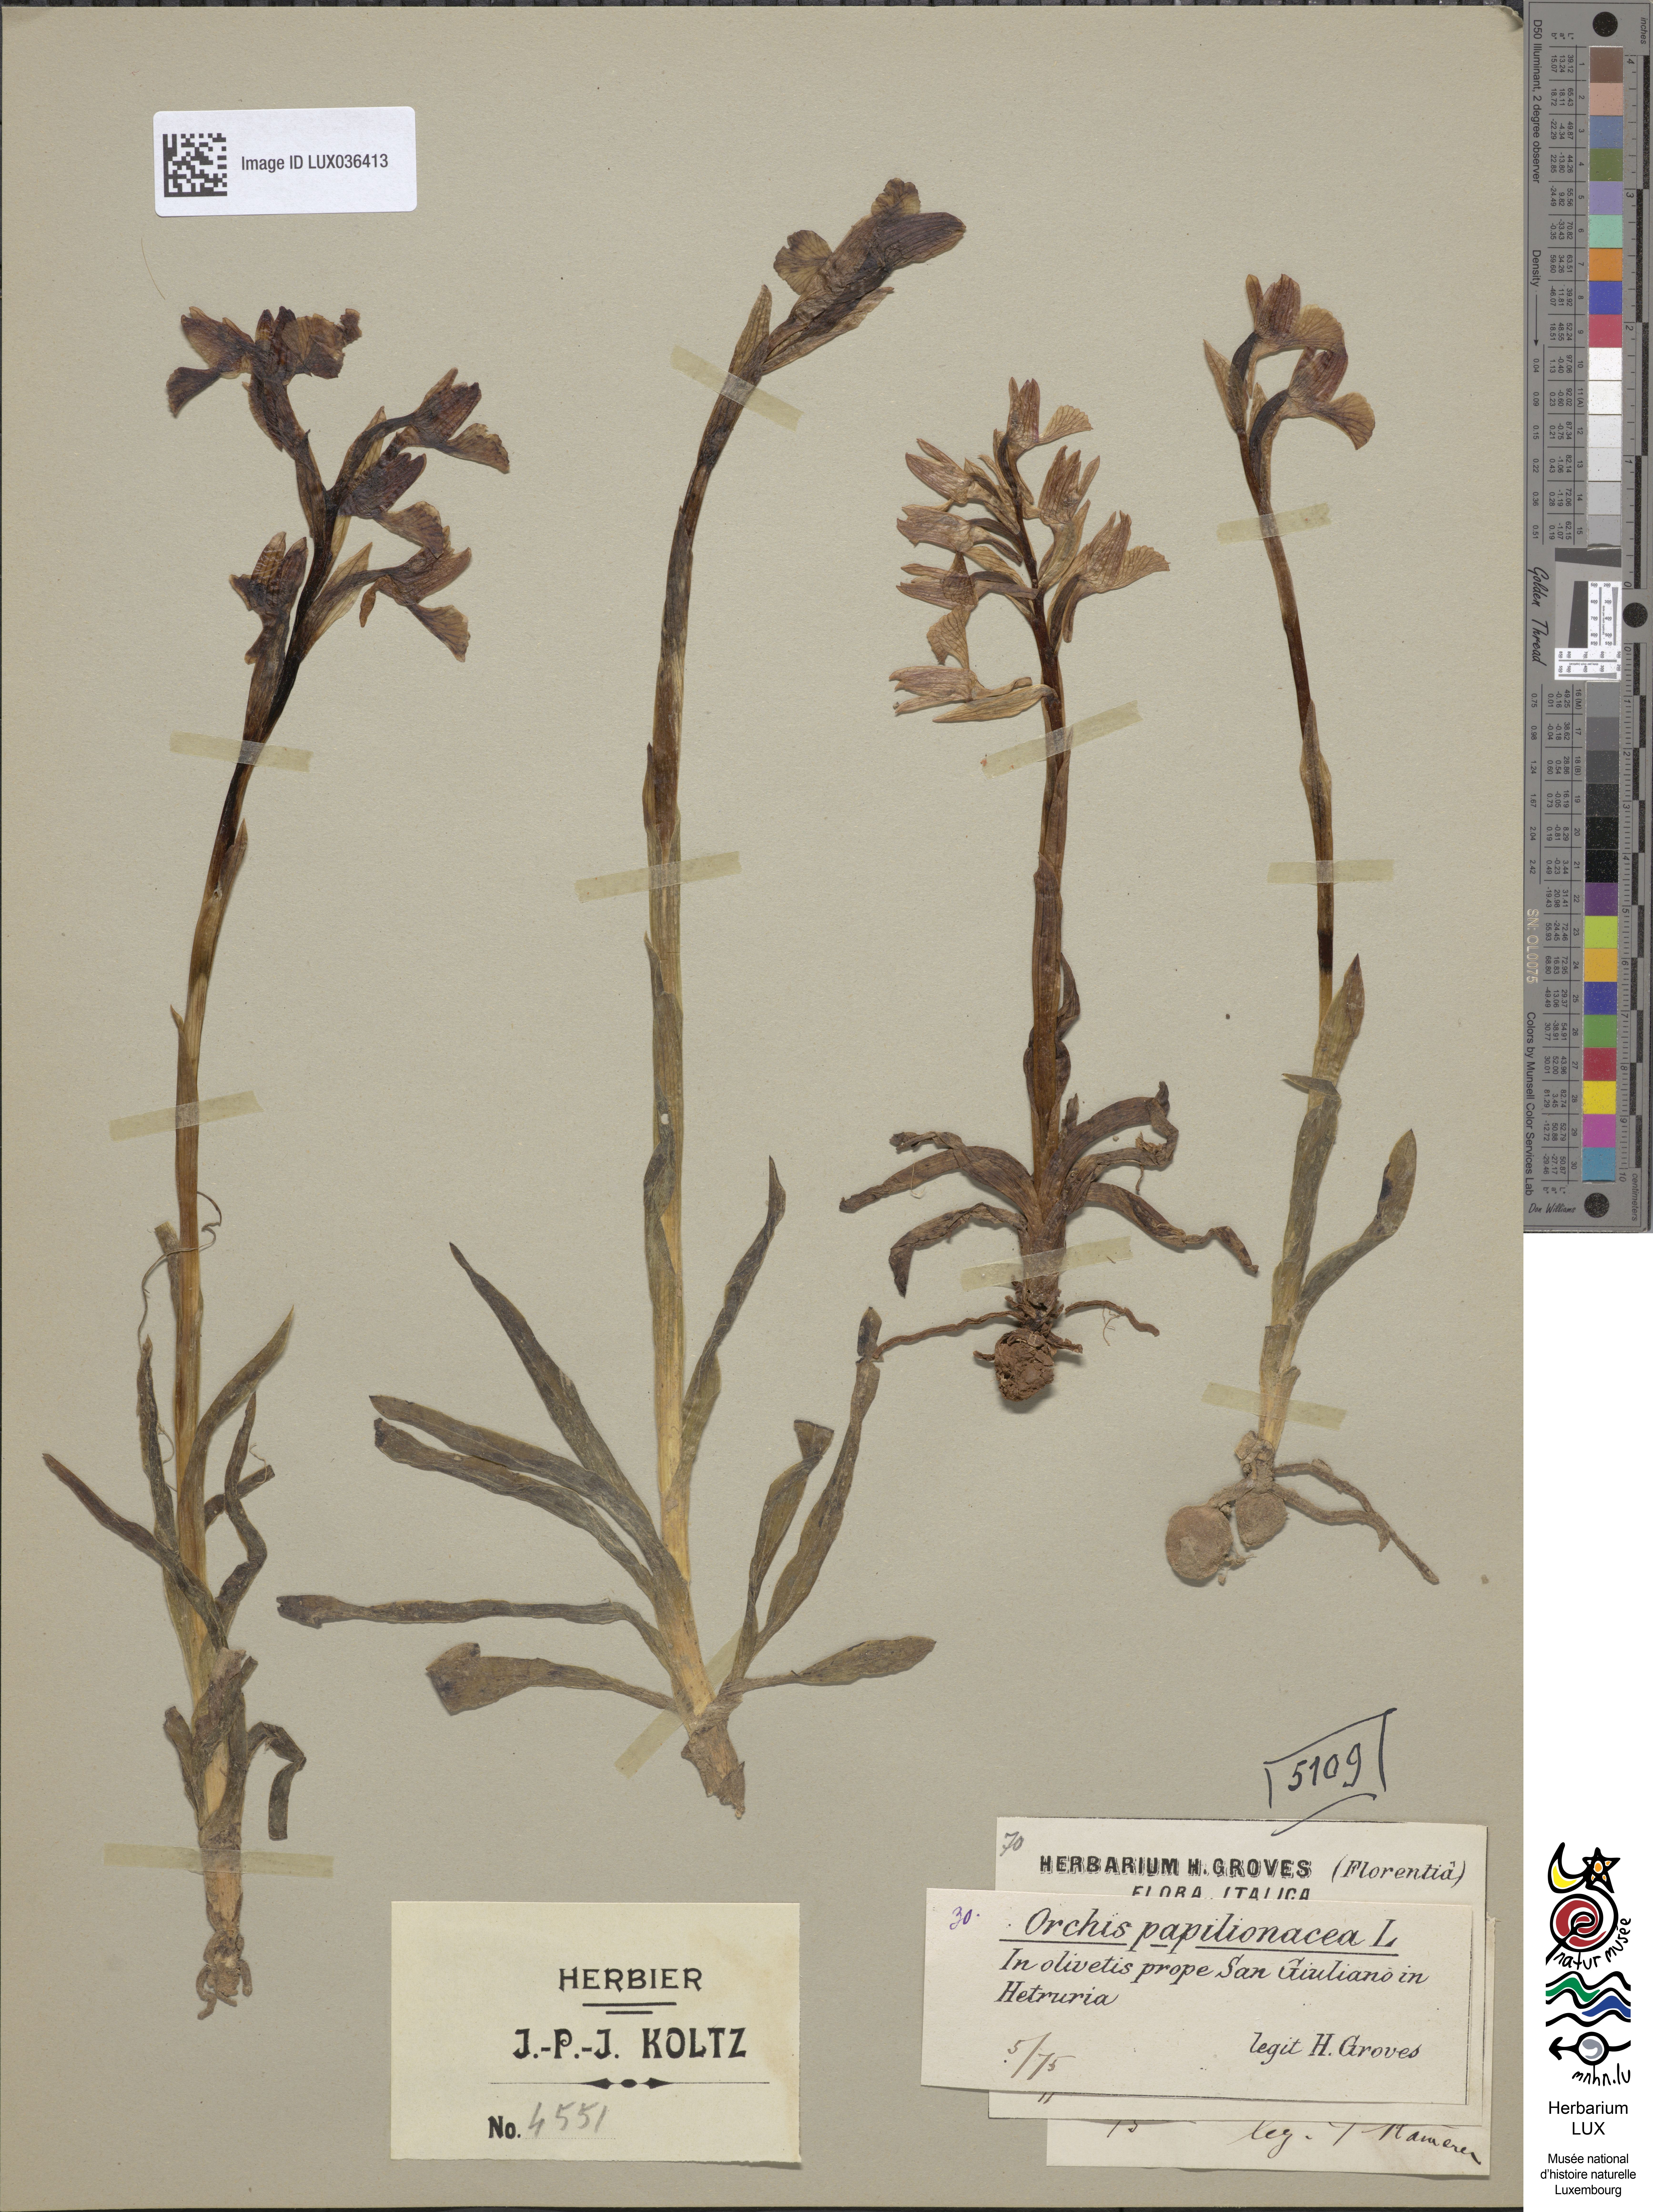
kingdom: Plantae
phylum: Tracheophyta
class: Liliopsida
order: Asparagales
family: Orchidaceae
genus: Anacamptis
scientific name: Anacamptis papilionacea
